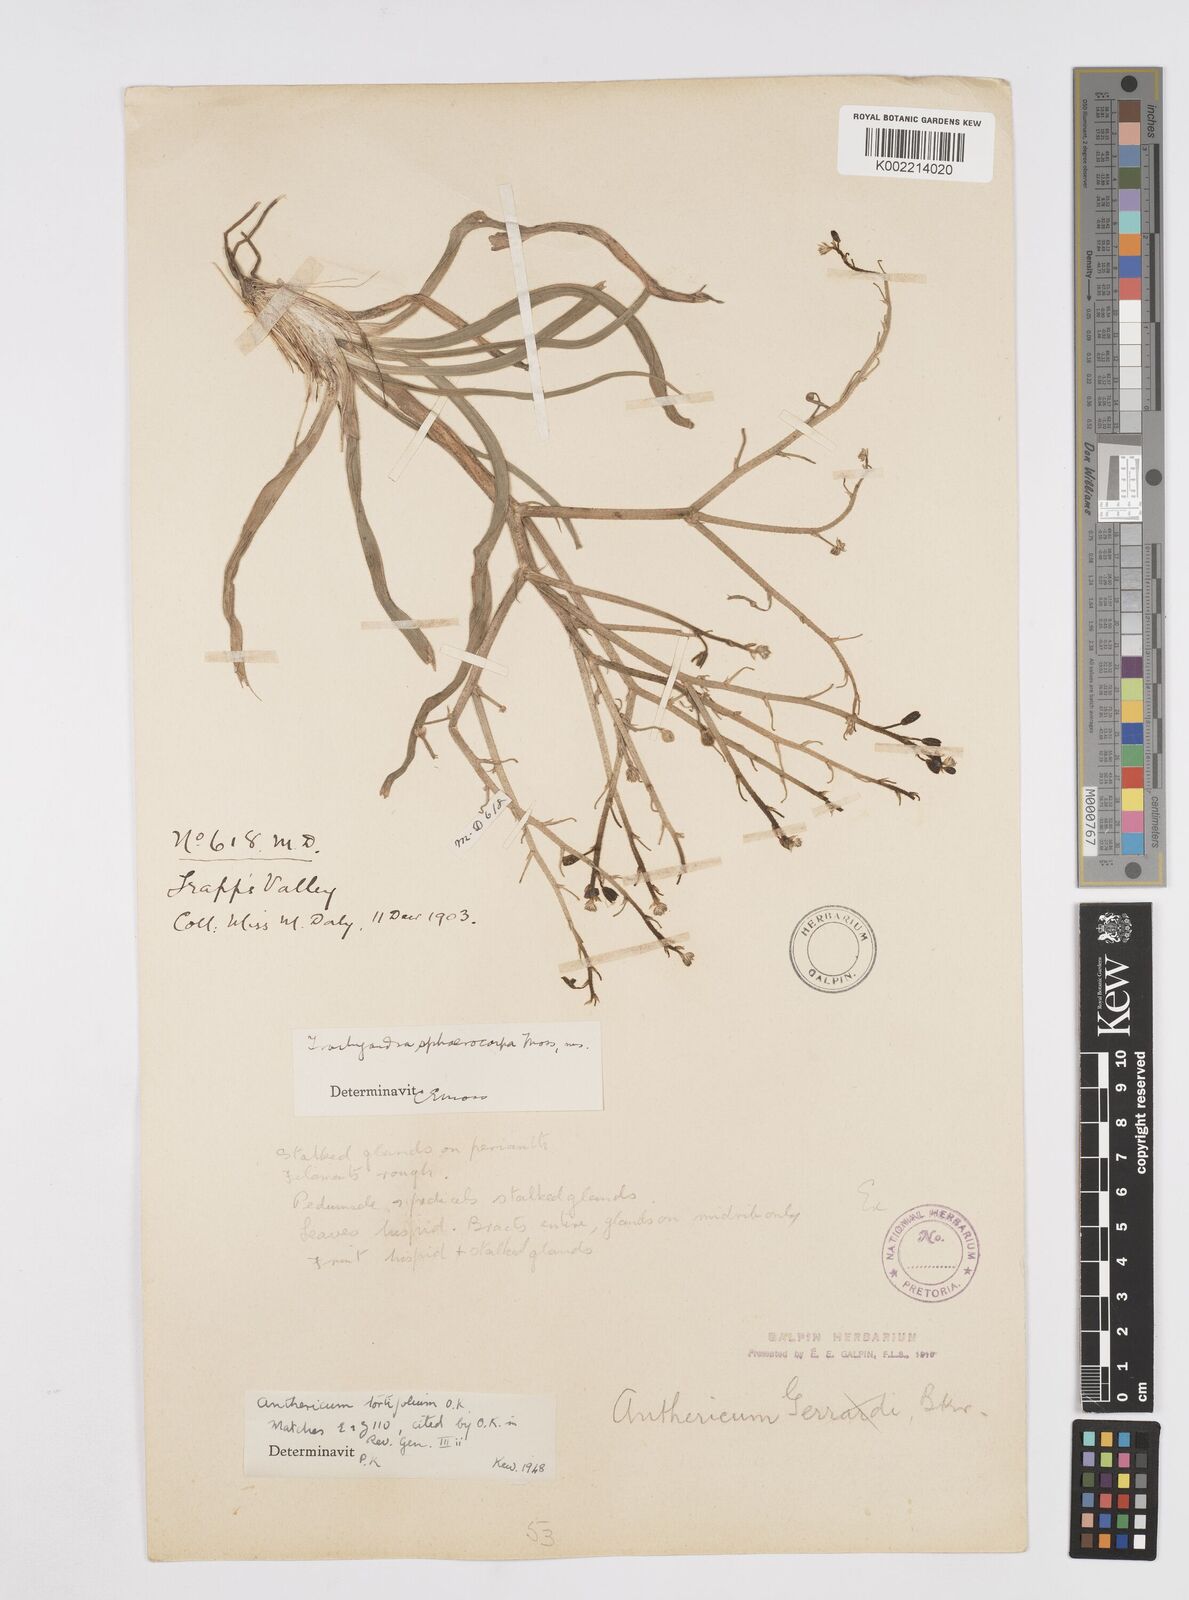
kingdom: Plantae
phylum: Tracheophyta
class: Liliopsida
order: Asparagales
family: Asphodelaceae
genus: Trachyandra
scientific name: Trachyandra gerrardii
